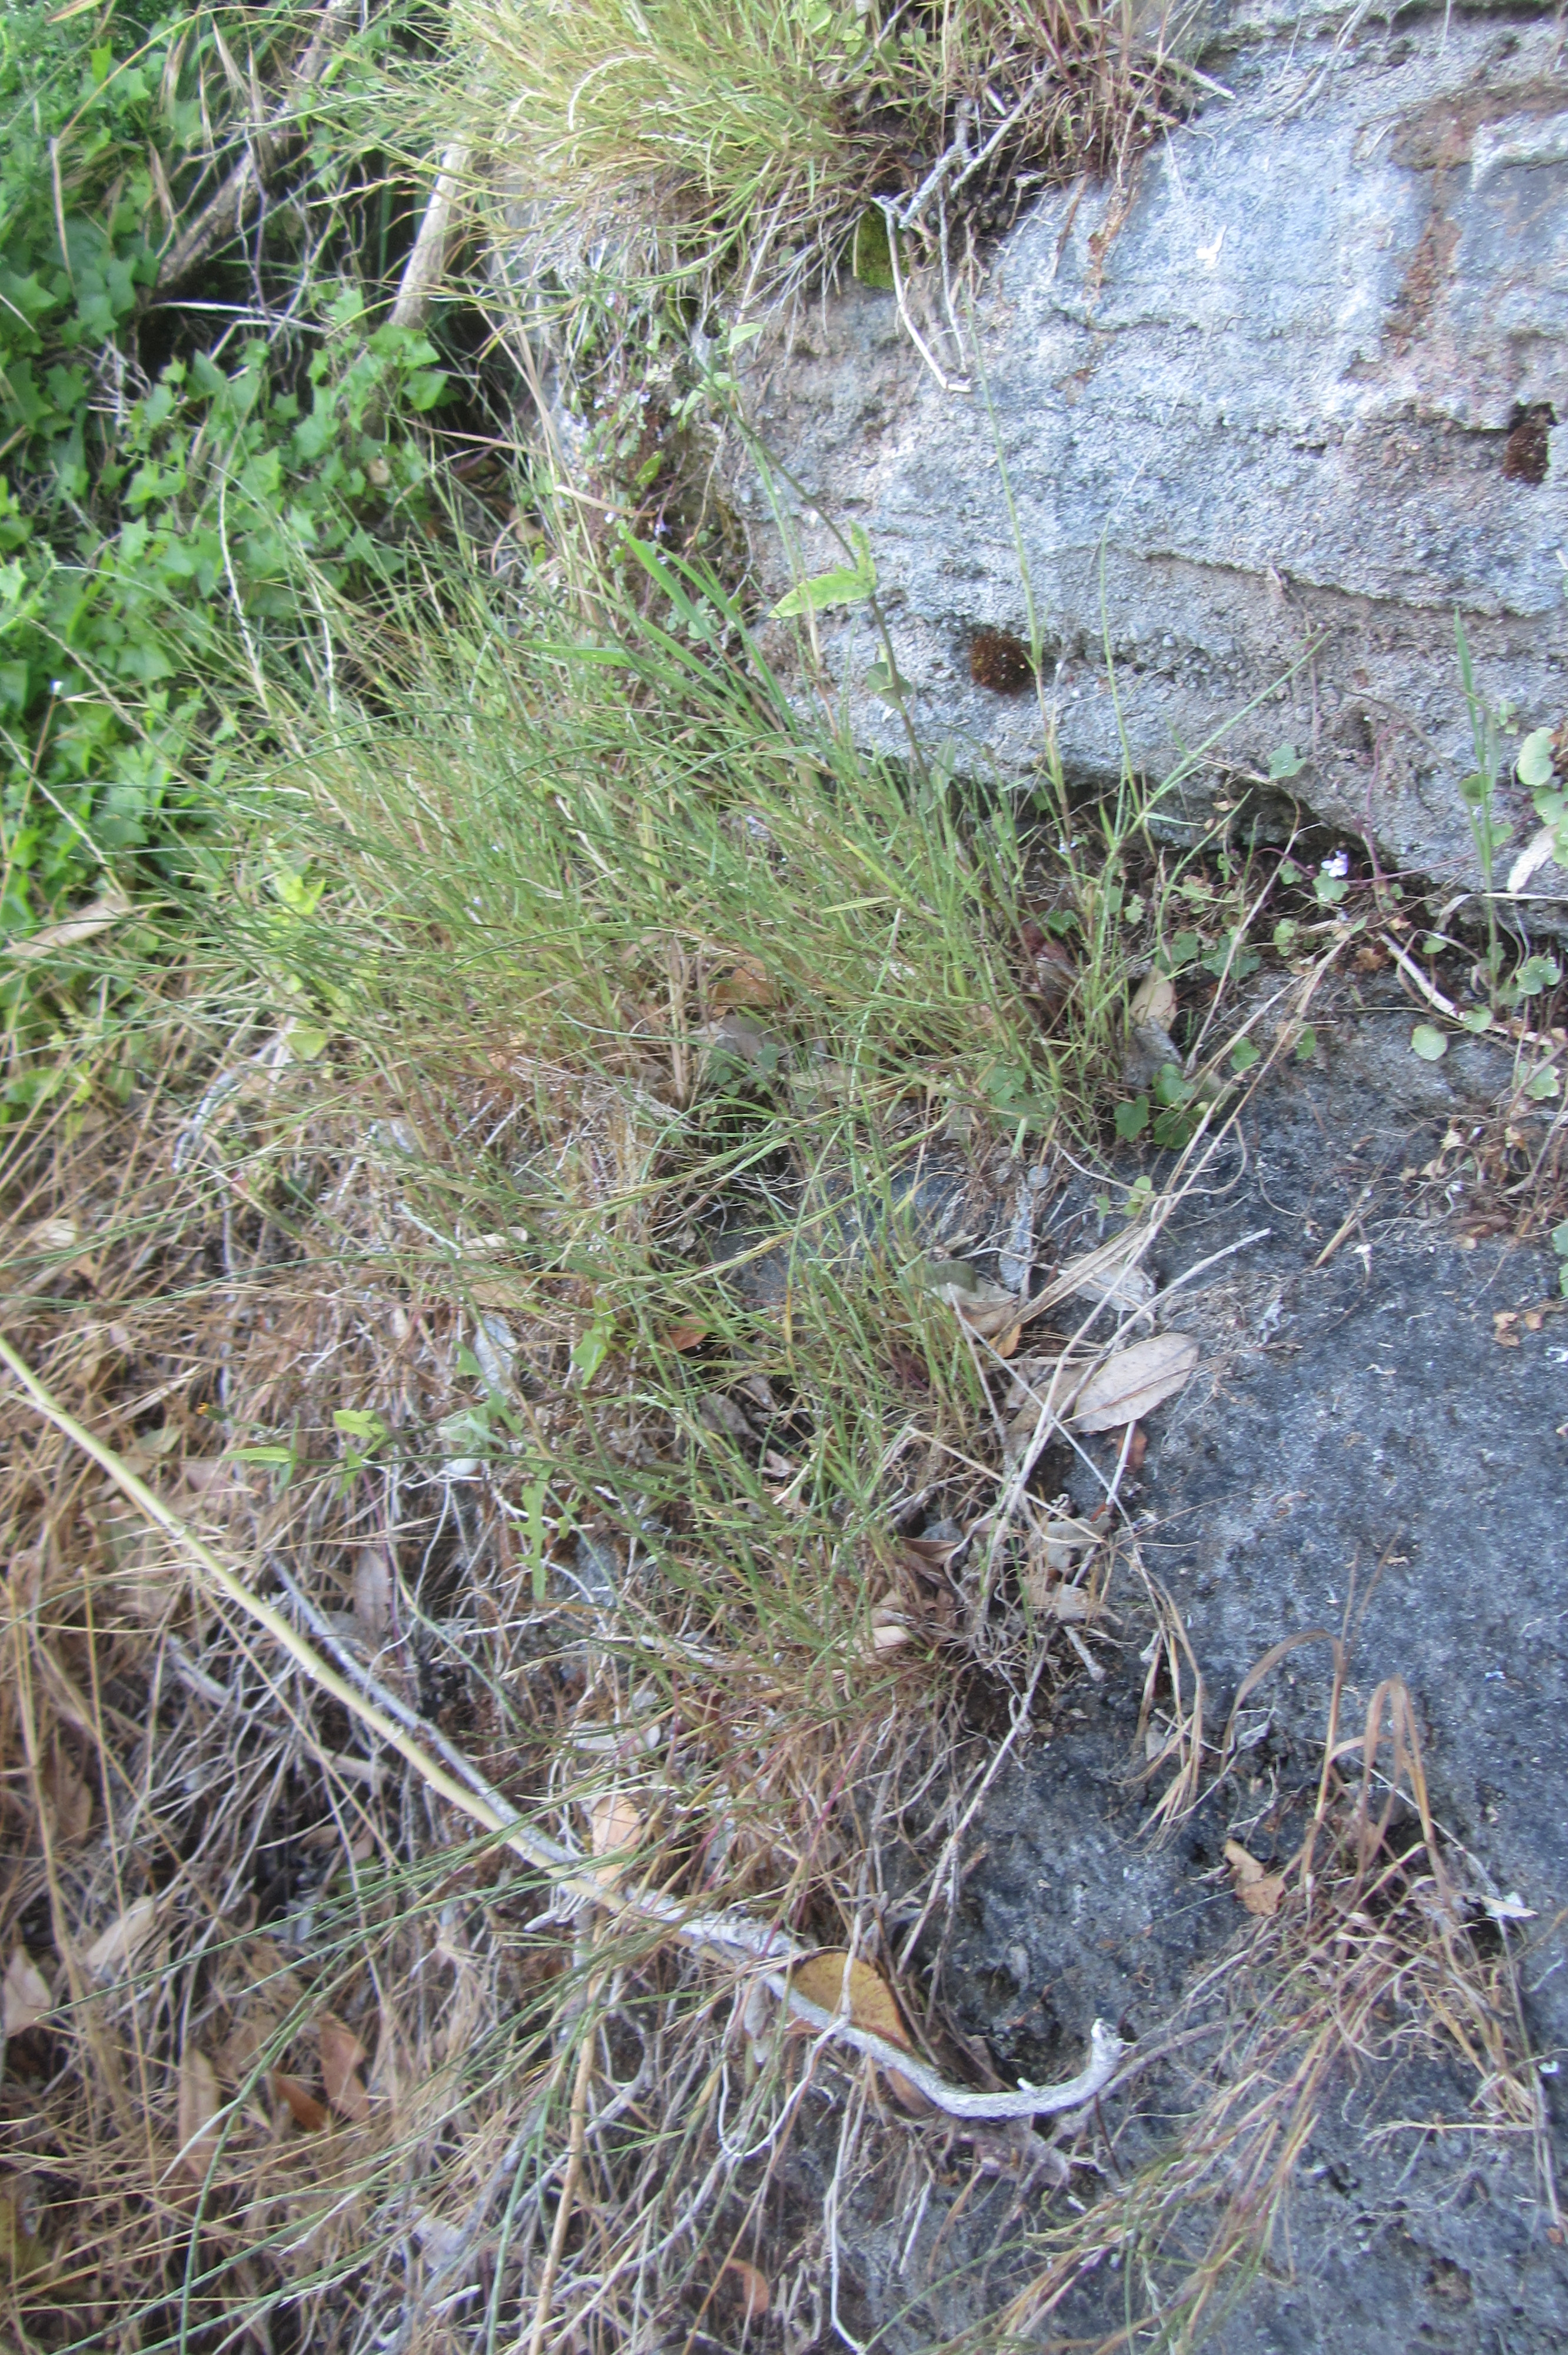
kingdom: Plantae
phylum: Tracheophyta
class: Liliopsida
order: Poales
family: Poaceae
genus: Parapholis
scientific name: Parapholis strigosa
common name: Hard-grass
